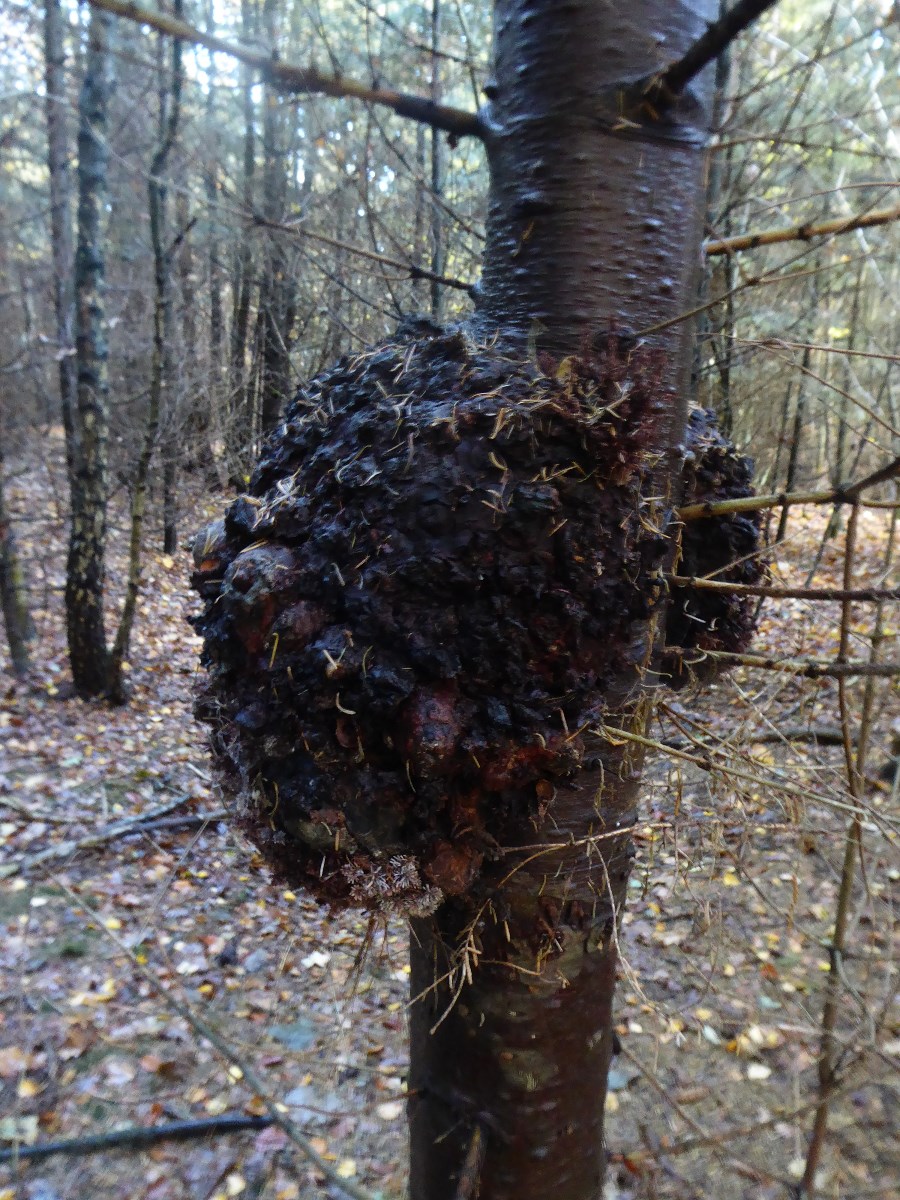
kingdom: Fungi
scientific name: Fungi
